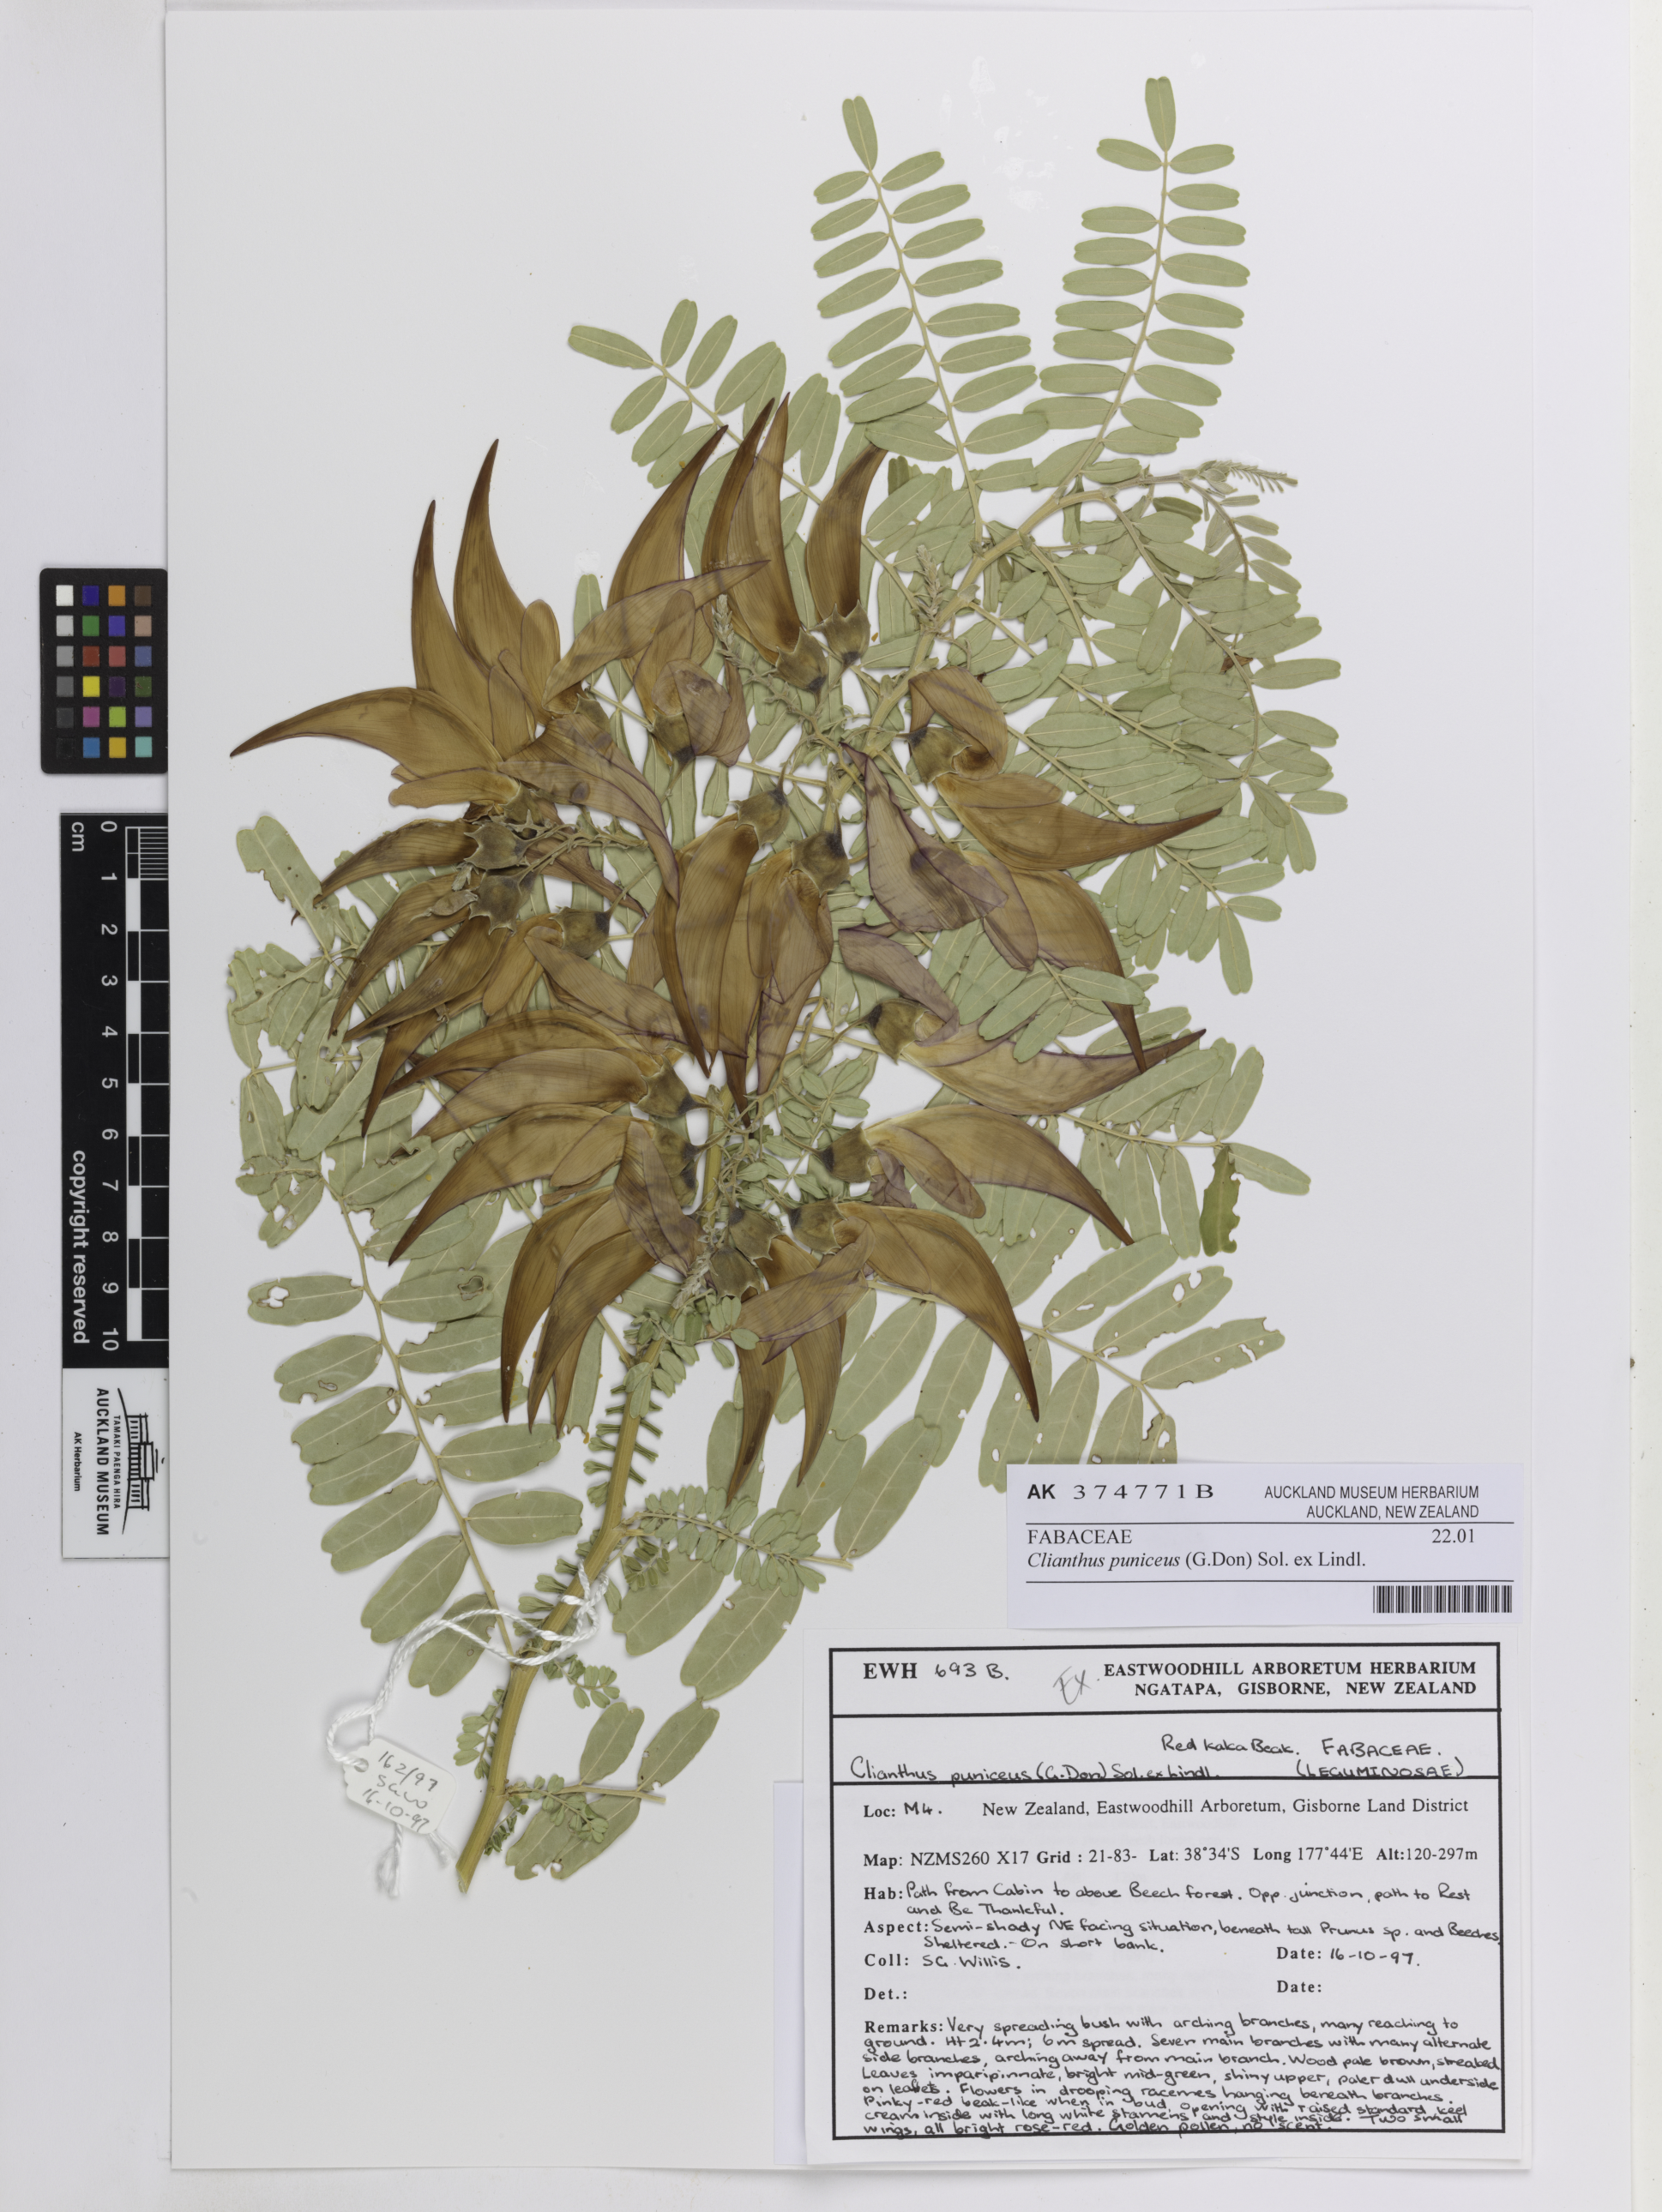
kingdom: Plantae
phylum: Tracheophyta
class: Magnoliopsida
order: Fabales
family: Fabaceae
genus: Clianthus
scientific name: Clianthus puniceus
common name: Kaka-beak
